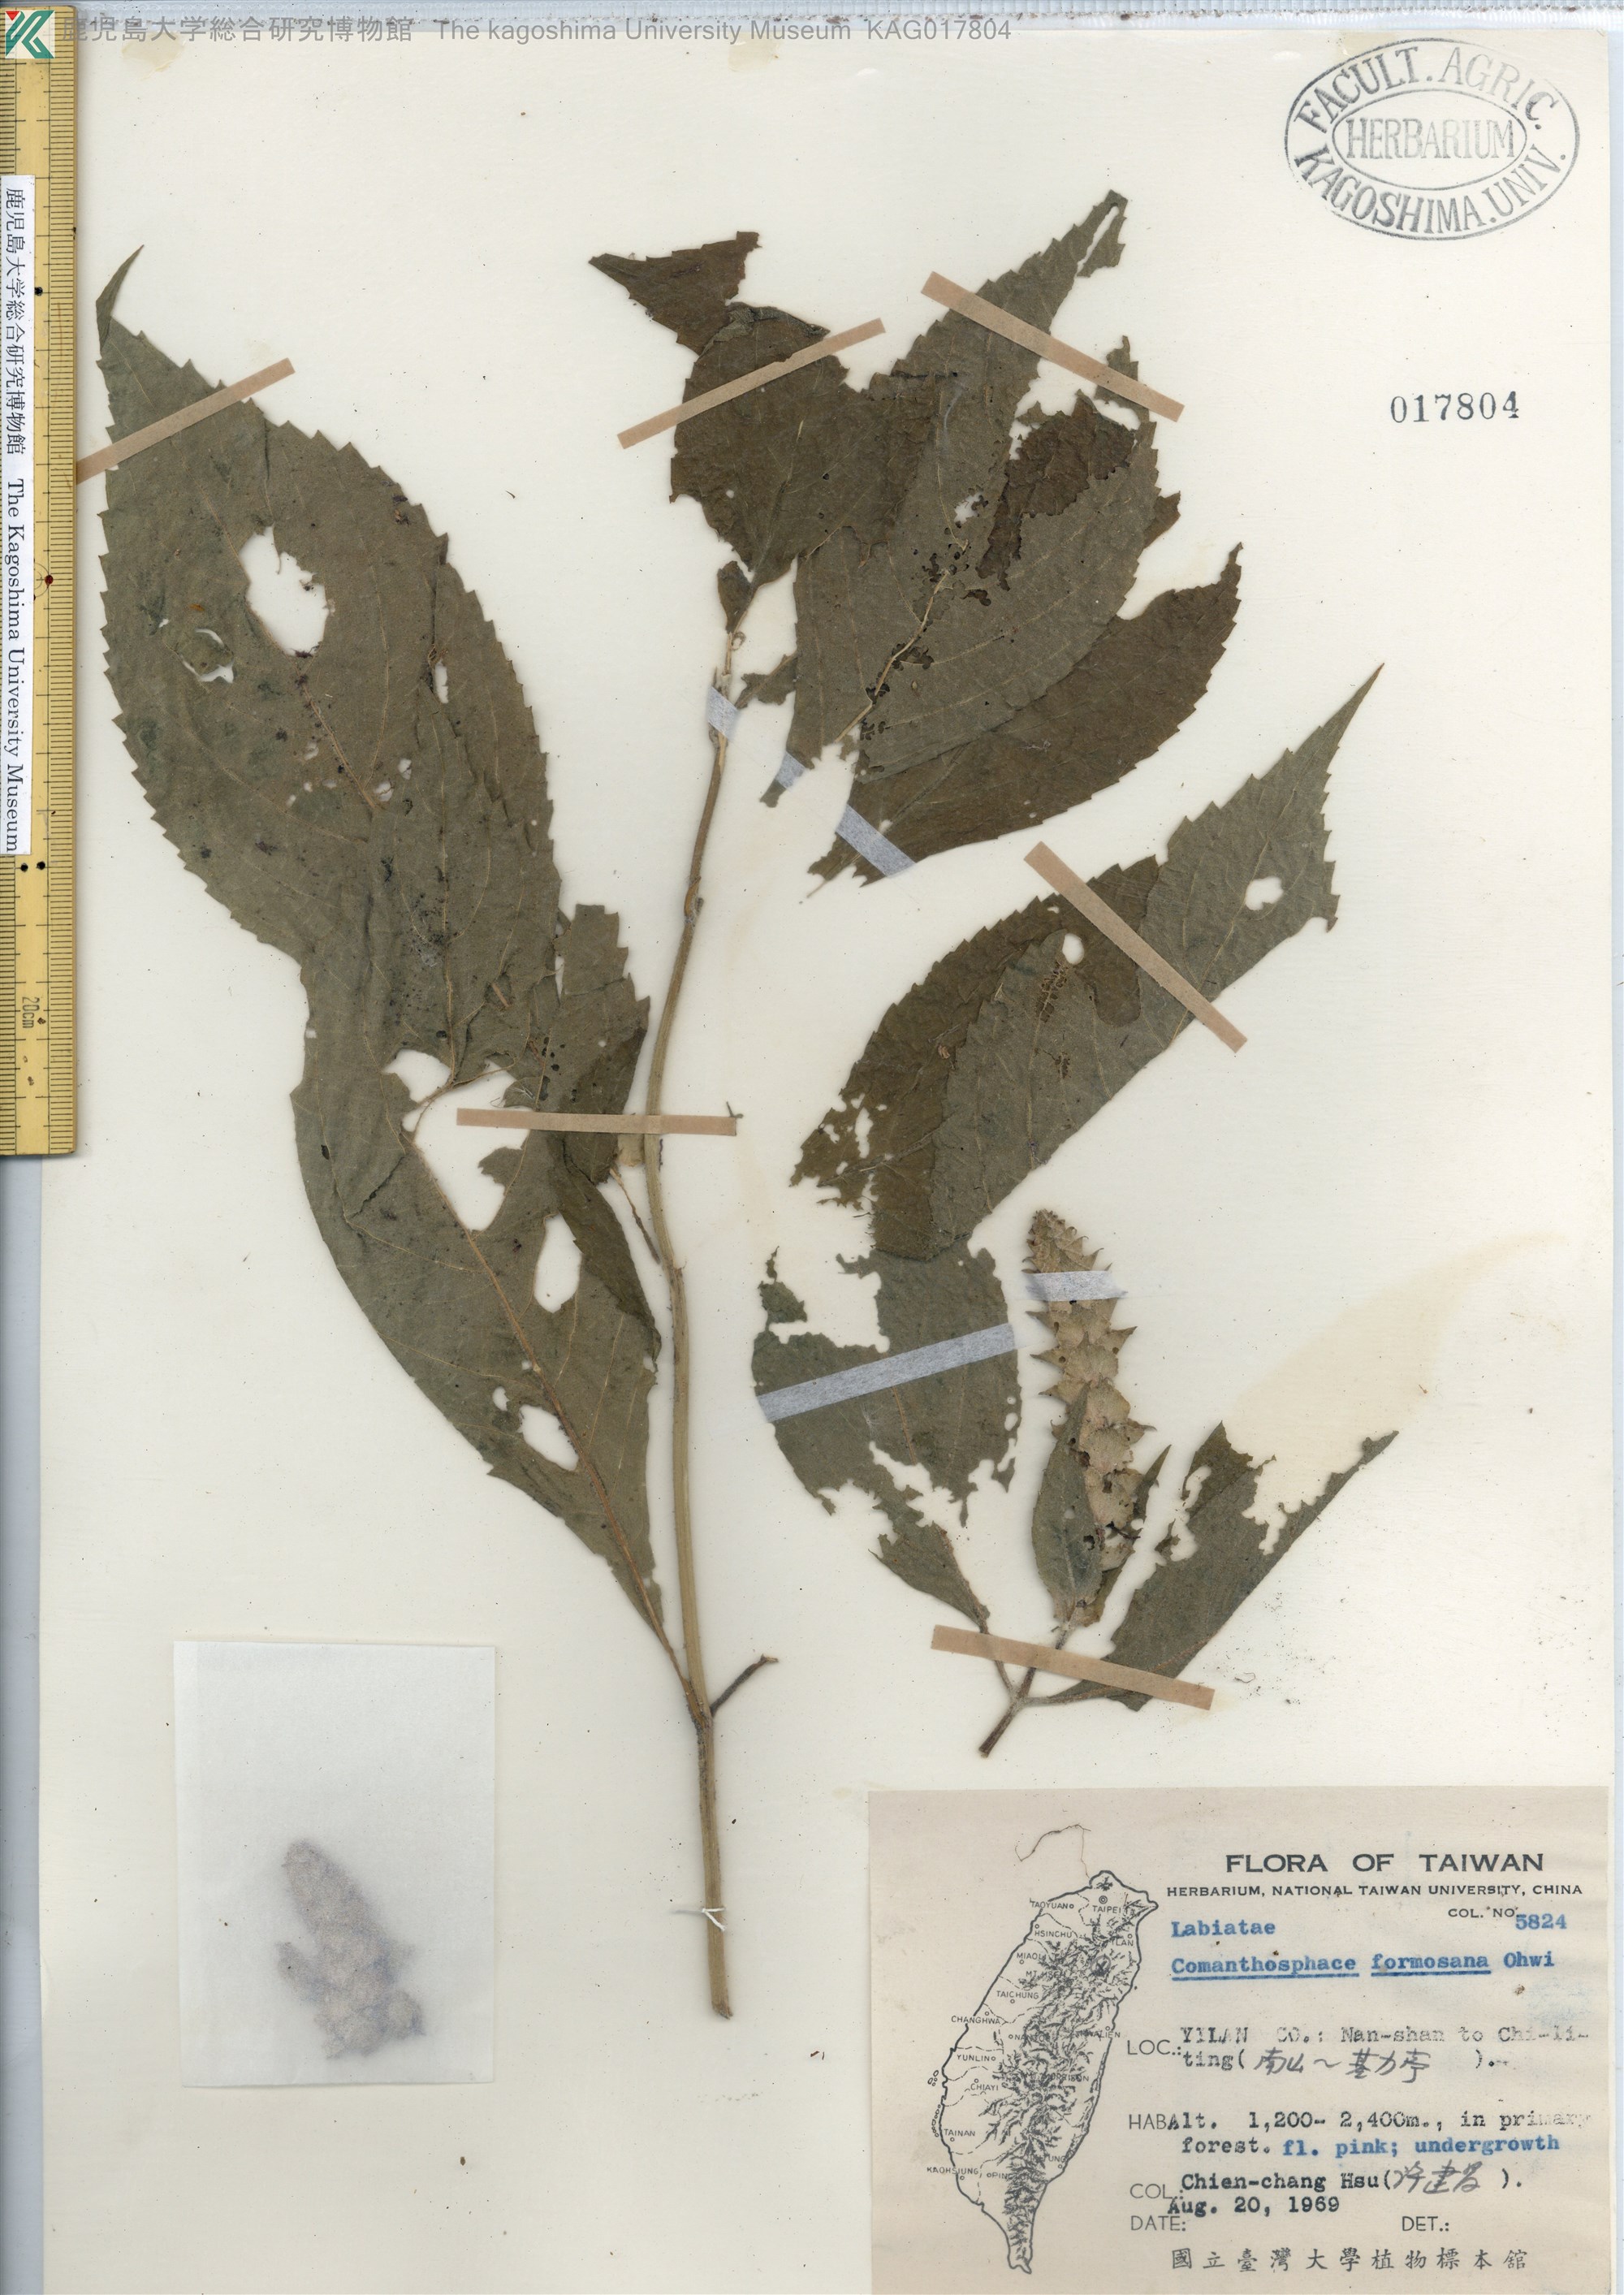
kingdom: Plantae
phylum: Tracheophyta
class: Magnoliopsida
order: Lamiales
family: Lamiaceae
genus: Comanthosphace
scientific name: Comanthosphace formosana
